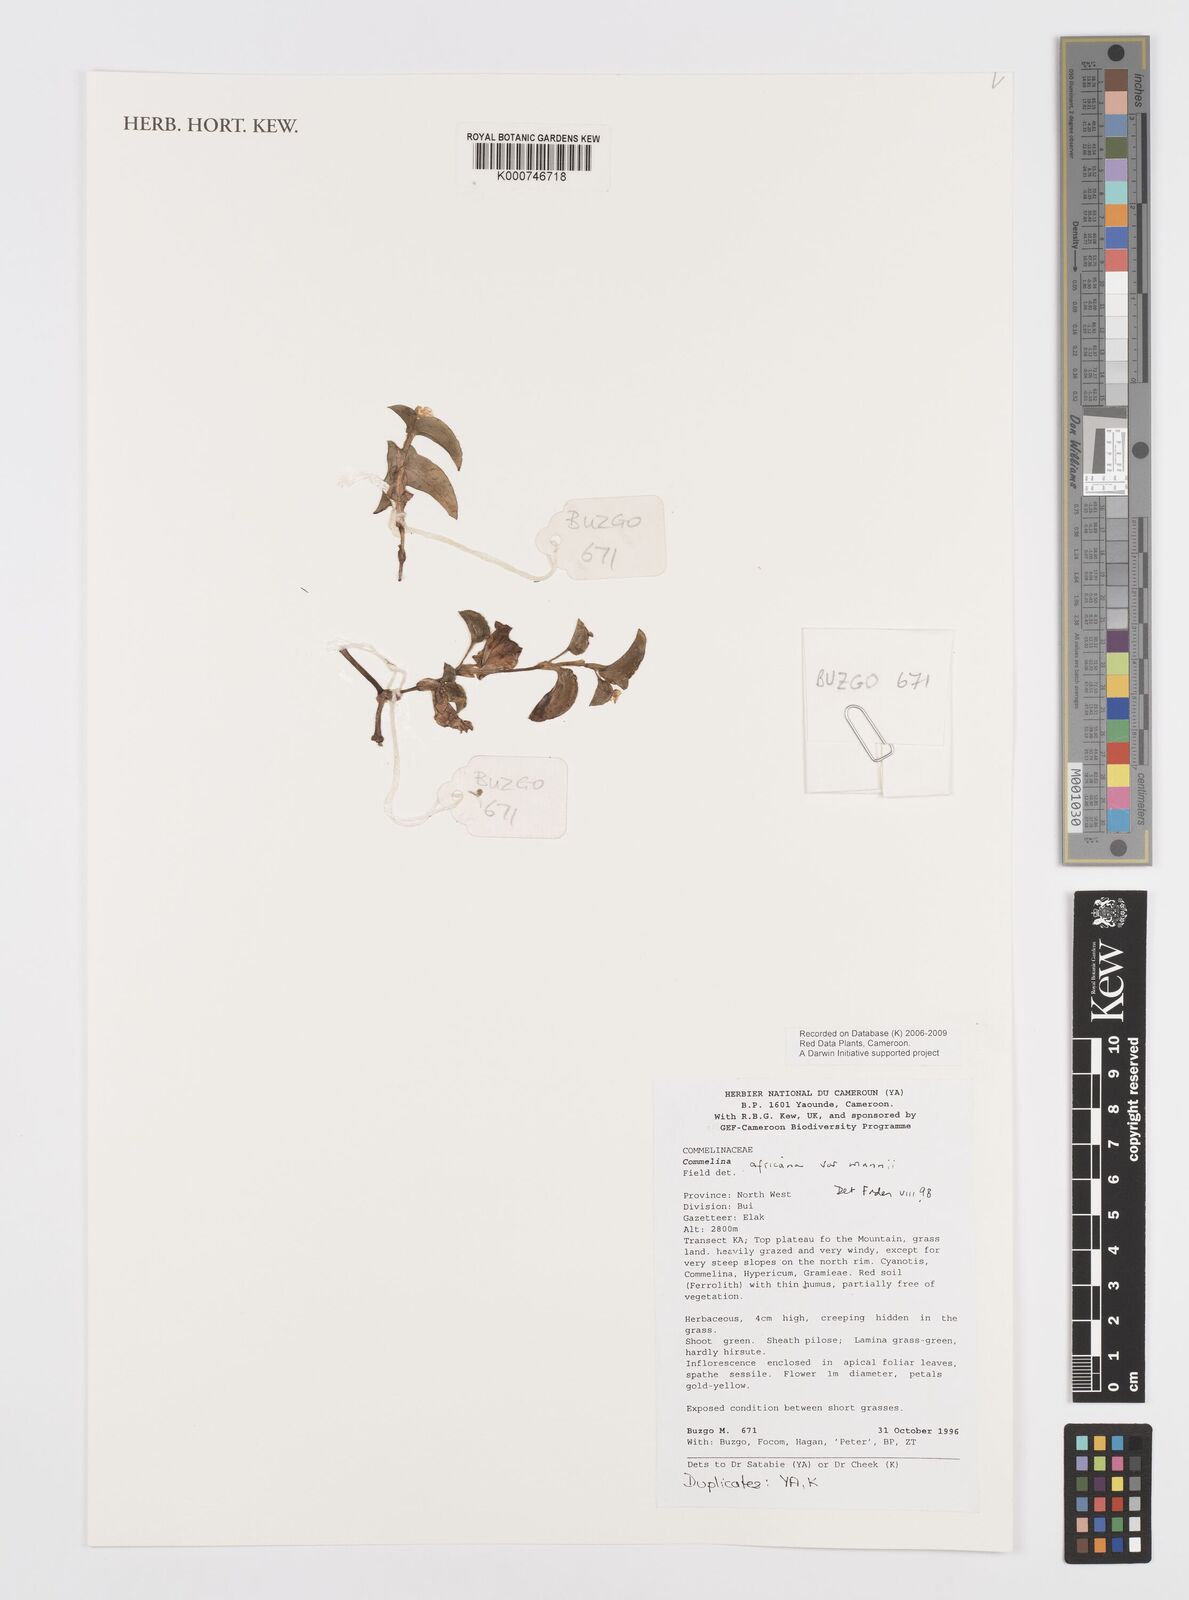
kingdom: Plantae
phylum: Tracheophyta
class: Liliopsida
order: Commelinales
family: Commelinaceae
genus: Commelina
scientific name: Commelina africana
